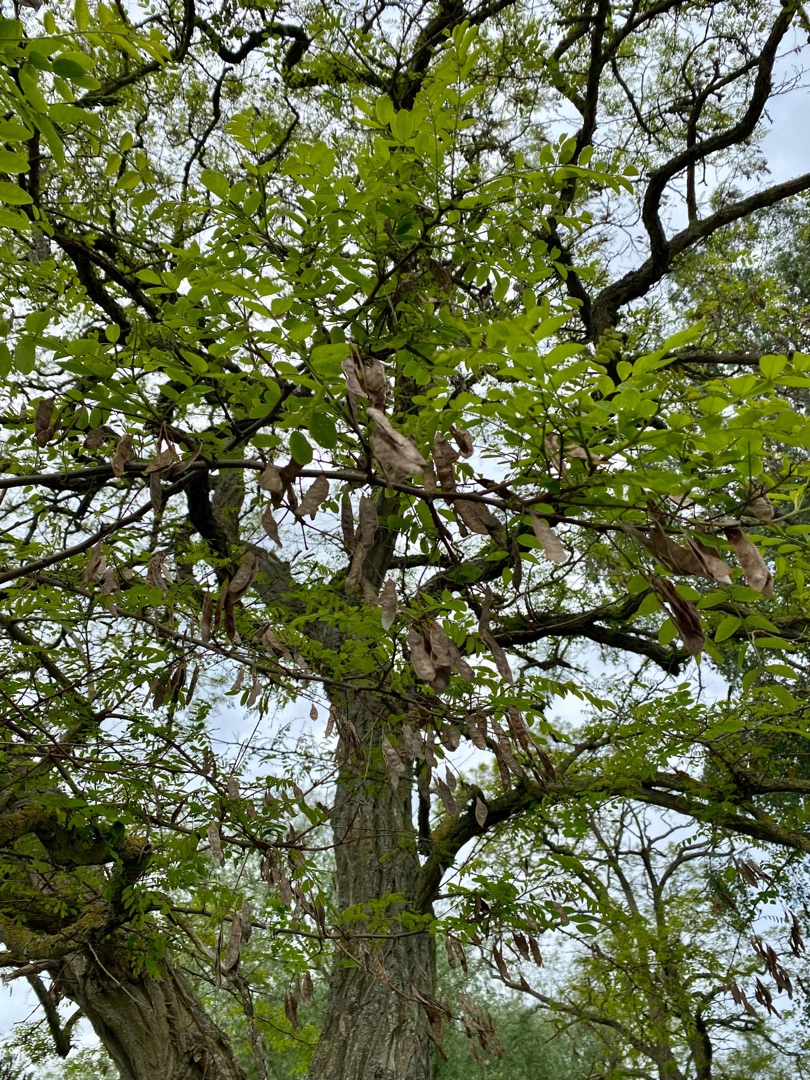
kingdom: Plantae
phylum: Tracheophyta
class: Magnoliopsida
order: Fabales
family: Fabaceae
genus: Robinia
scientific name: Robinia pseudoacacia
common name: Robinie
